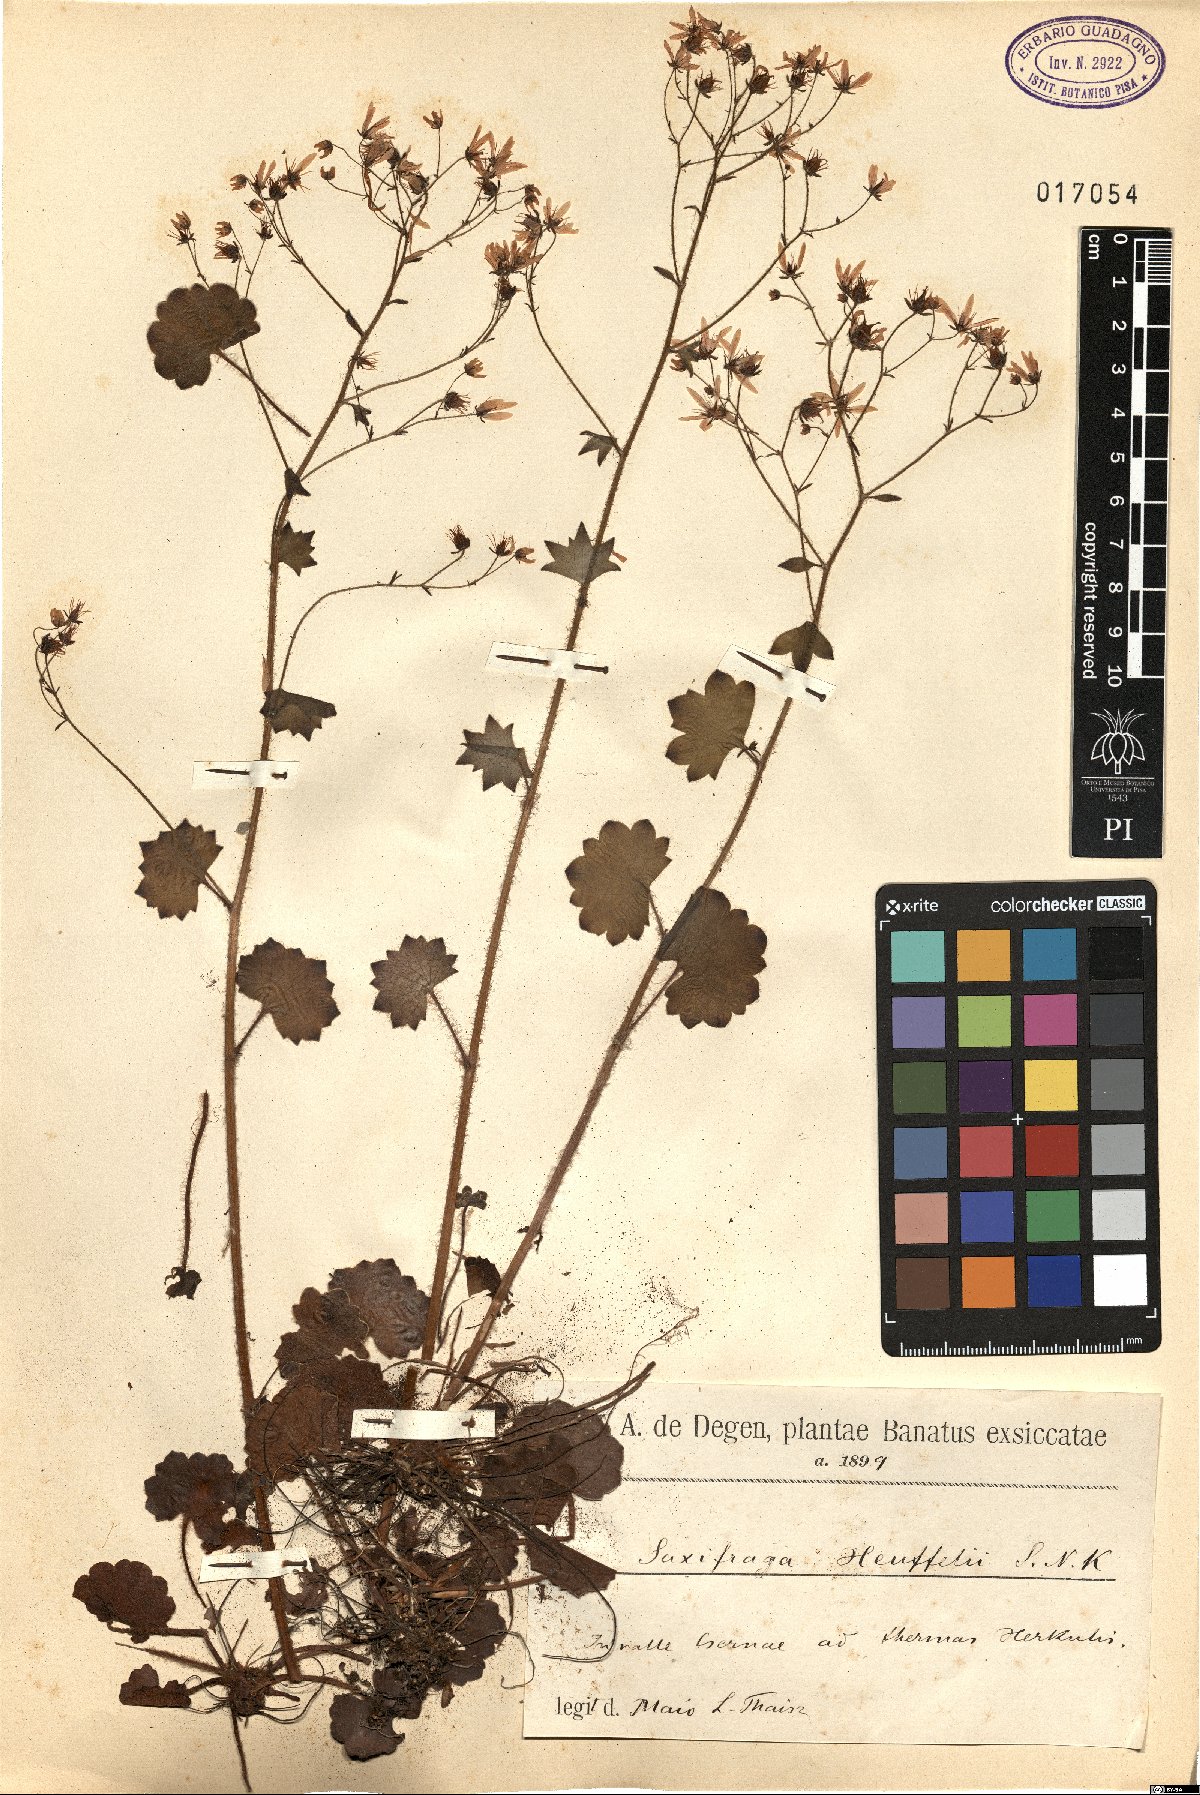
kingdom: Plantae
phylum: Tracheophyta
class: Magnoliopsida
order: Saxifragales
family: Saxifragaceae
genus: Saxifraga
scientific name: Saxifraga rotundifolia
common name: Round-leaved saxifrage
